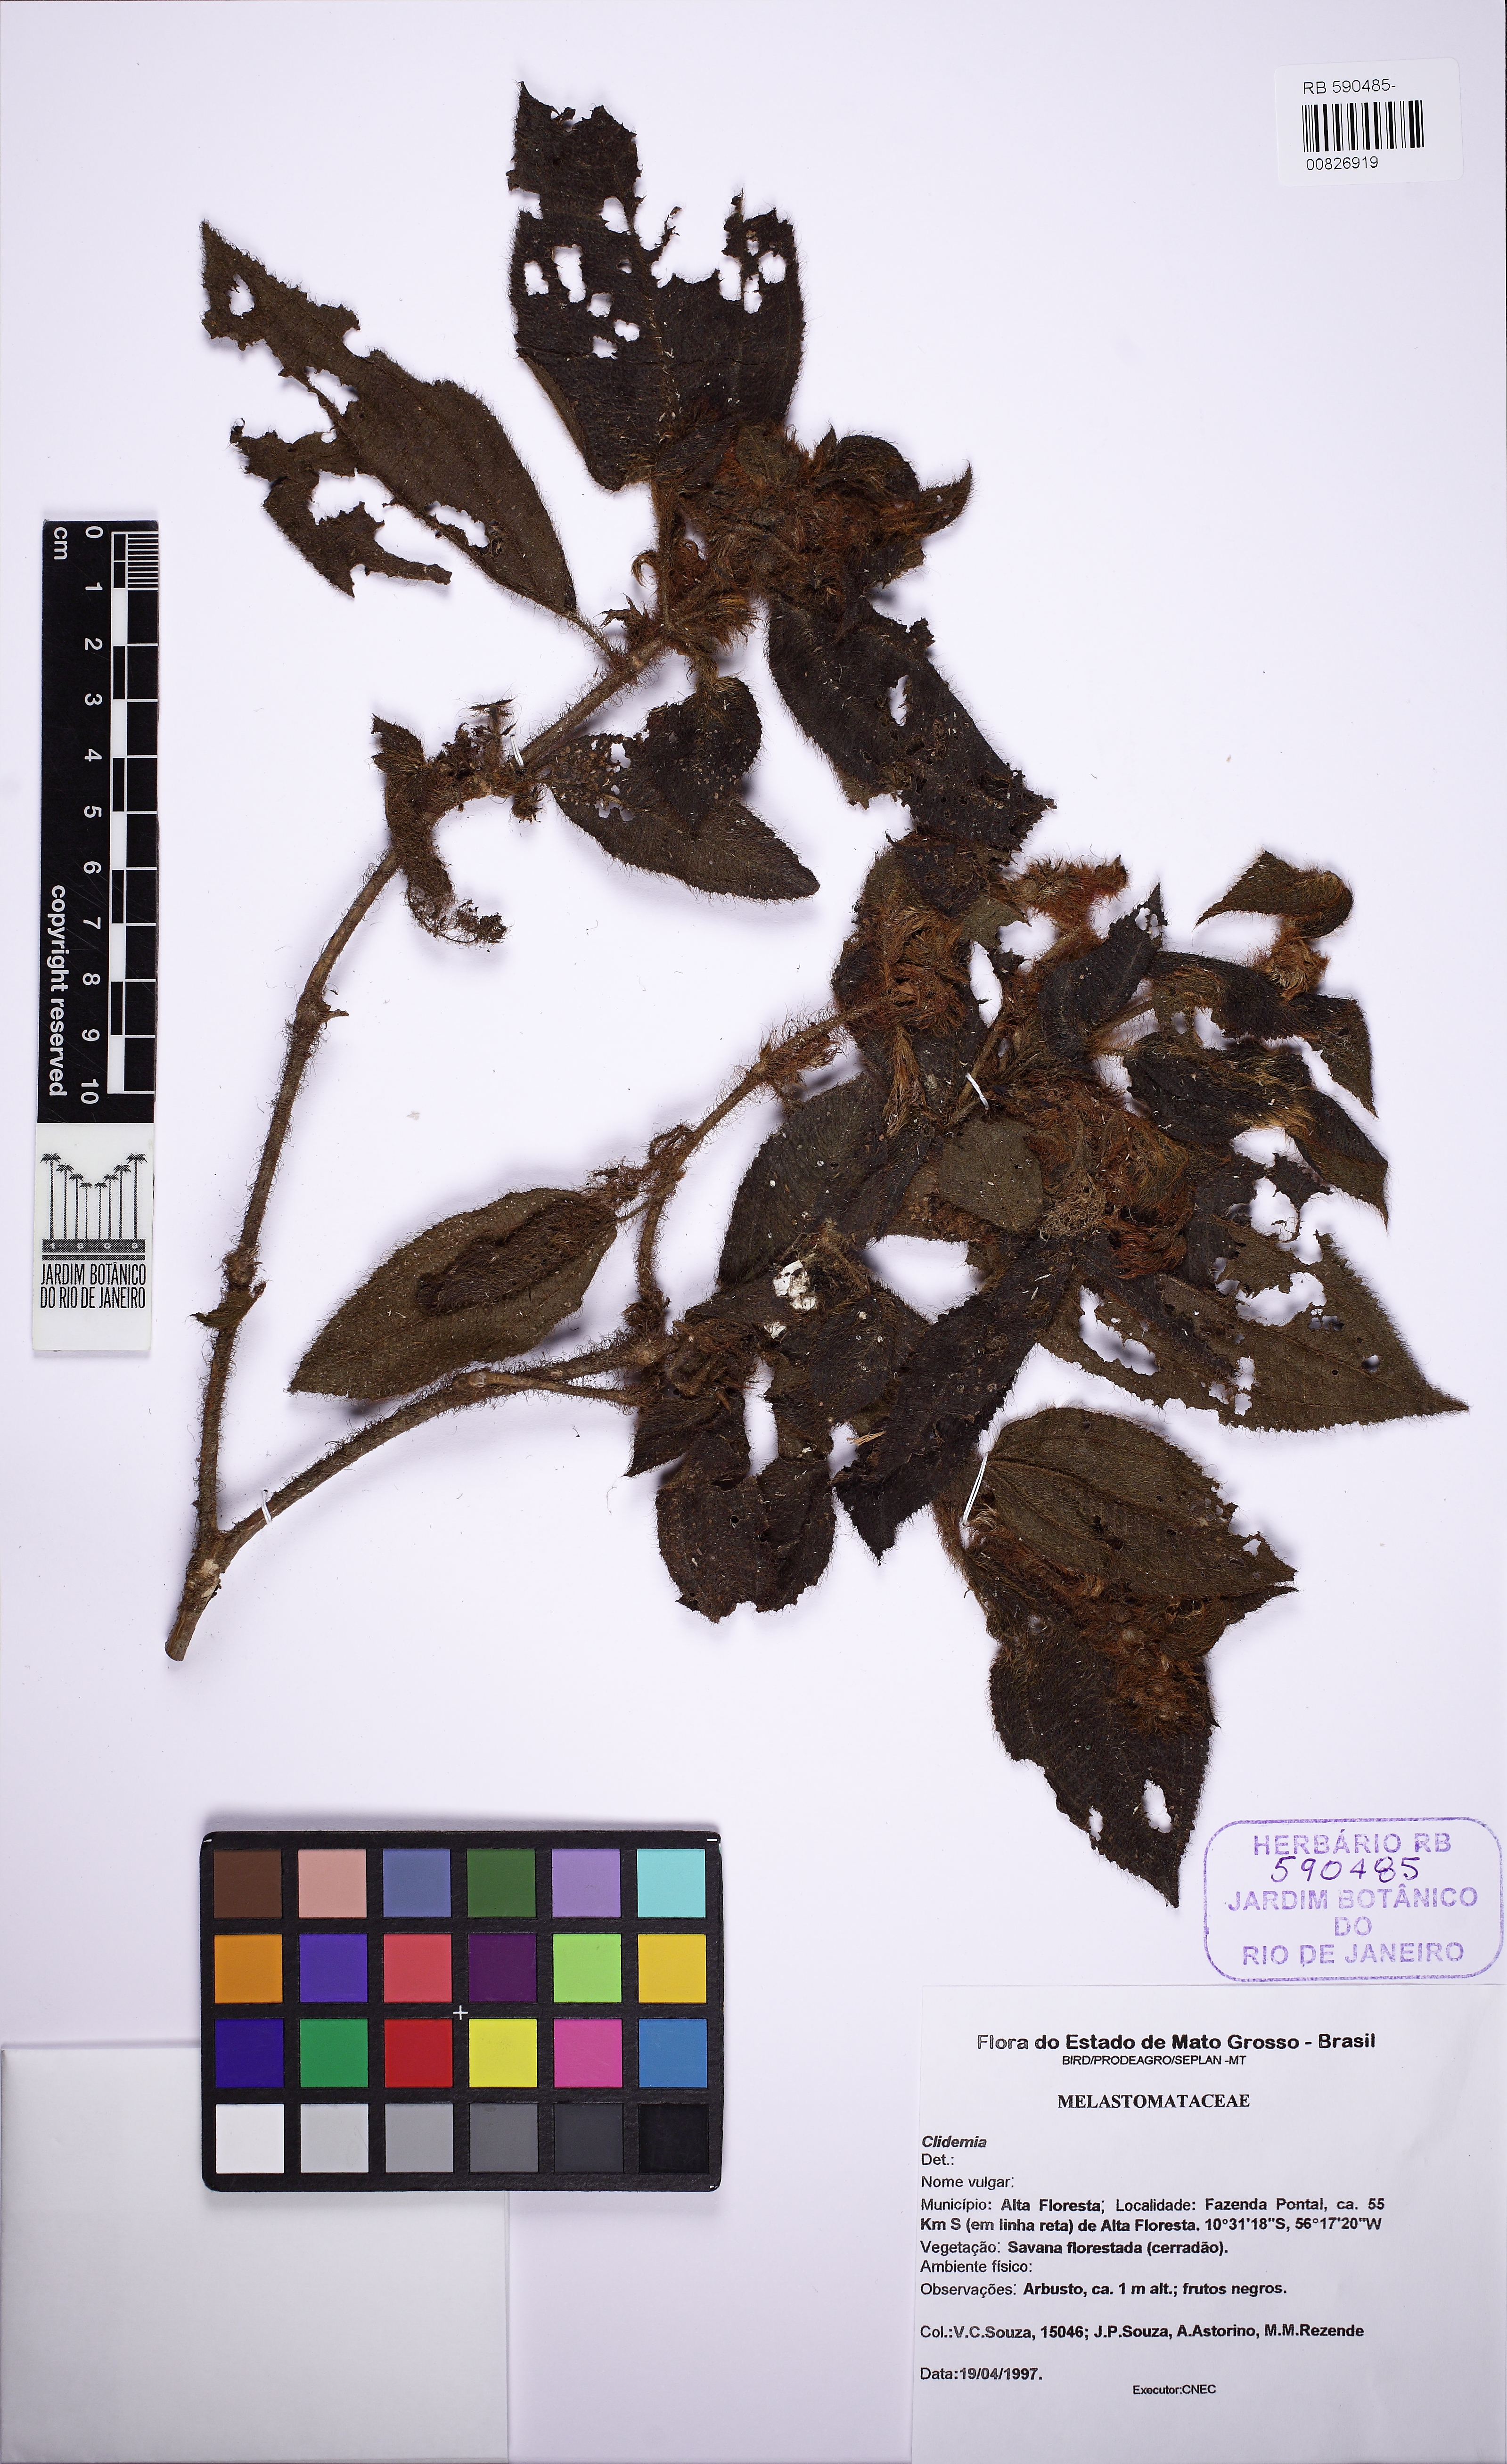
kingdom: Plantae
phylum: Tracheophyta
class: Magnoliopsida
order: Myrtales
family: Melastomataceae
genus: Miconia
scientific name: Miconia dependens
